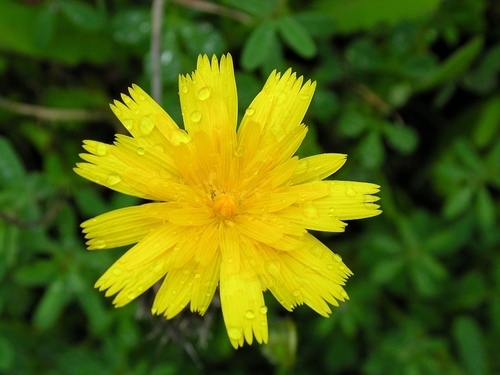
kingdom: Plantae
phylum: Tracheophyta
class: Magnoliopsida
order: Asterales
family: Asteraceae
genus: Taraxacum
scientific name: Taraxacum officinale
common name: Common dandelion
